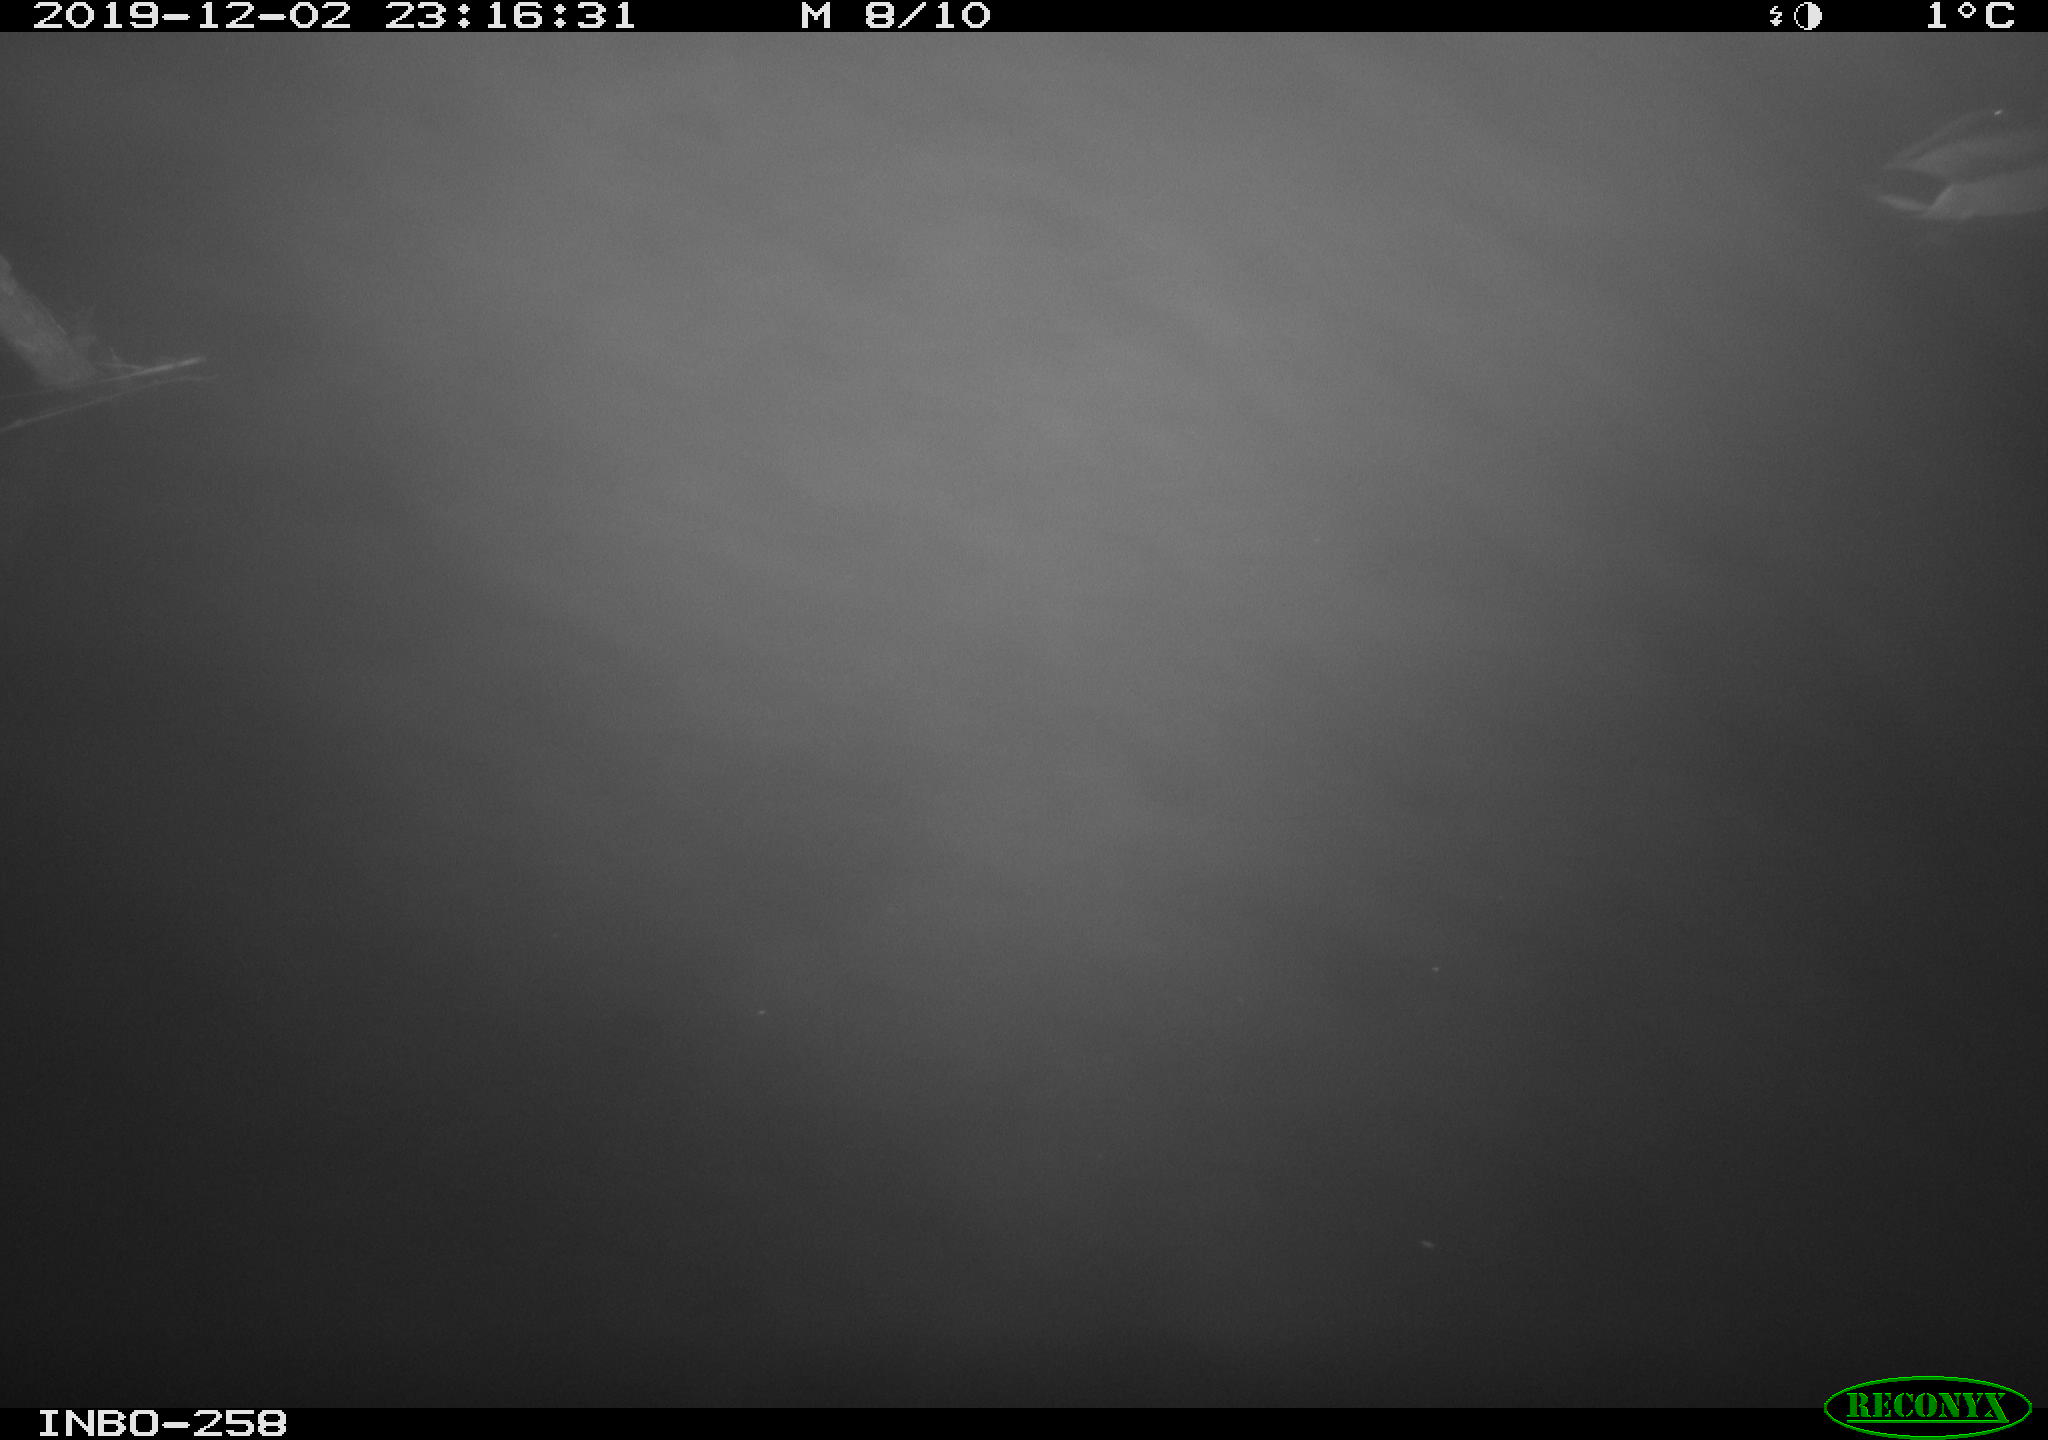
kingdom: Animalia
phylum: Chordata
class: Aves
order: Anseriformes
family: Anatidae
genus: Anas
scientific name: Anas platyrhynchos
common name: Mallard
